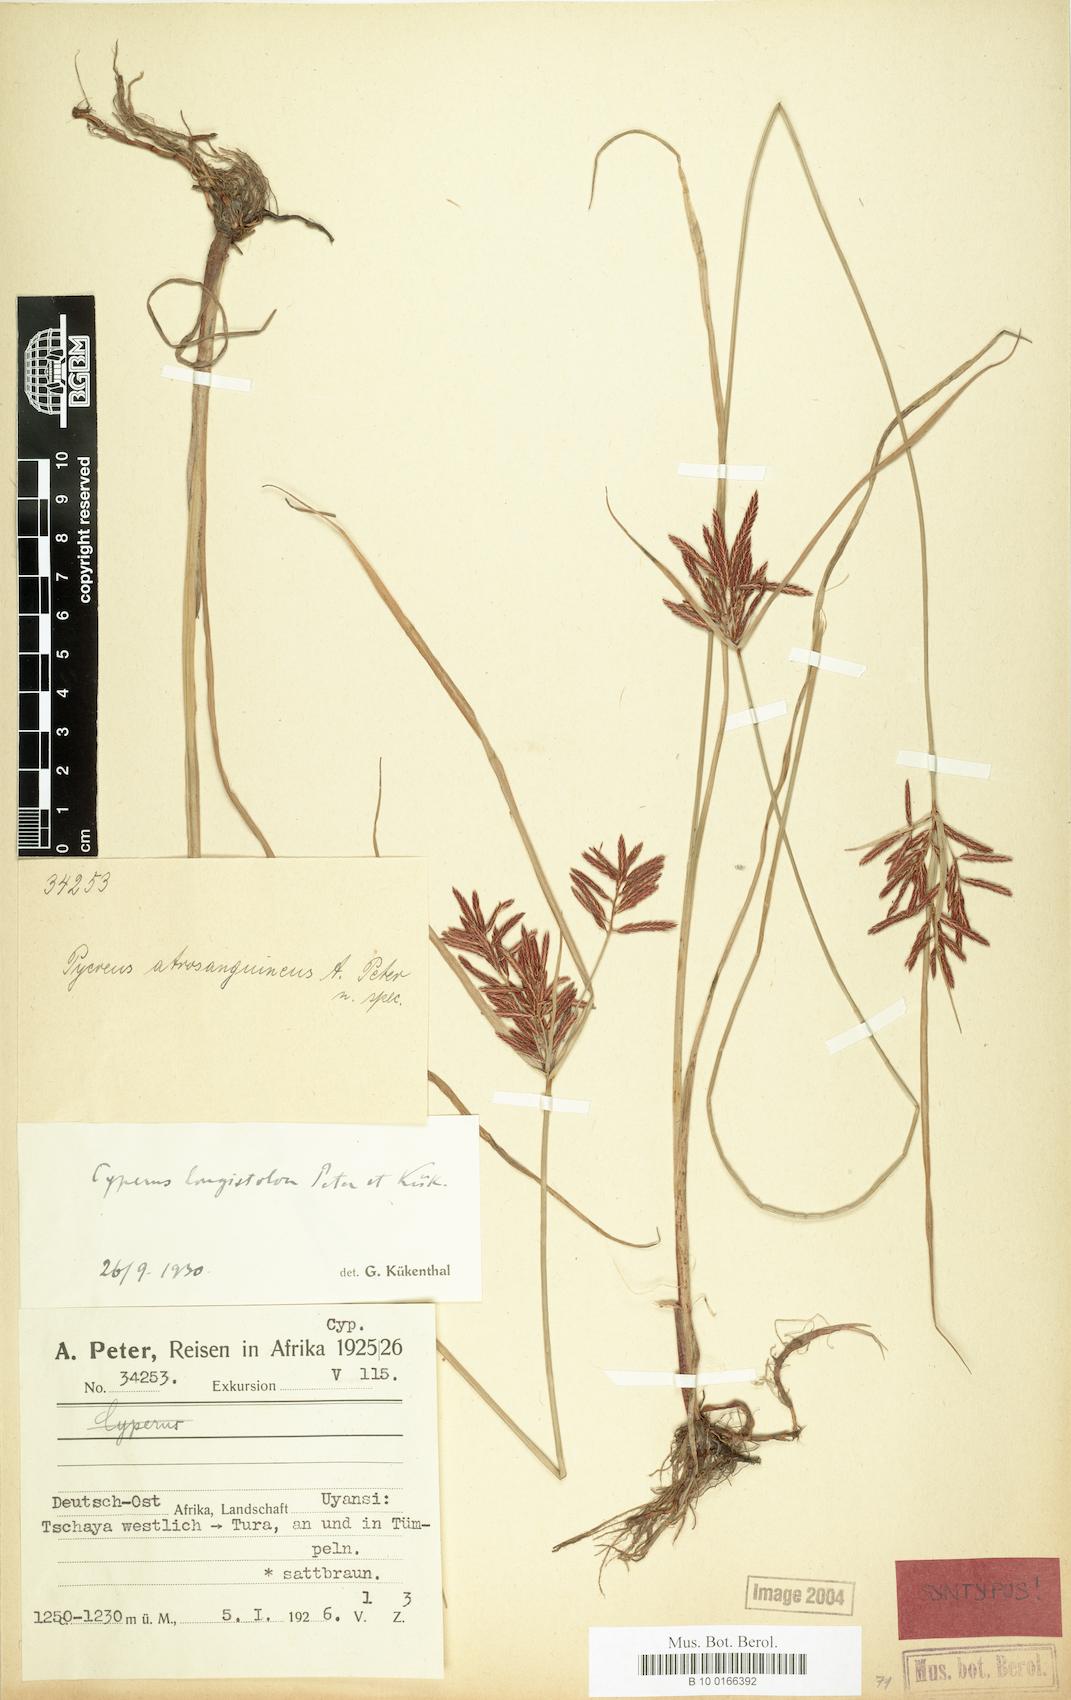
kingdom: Plantae
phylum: Tracheophyta
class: Liliopsida
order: Poales
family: Cyperaceae
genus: Cyperus
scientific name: Cyperus chrysanthus
